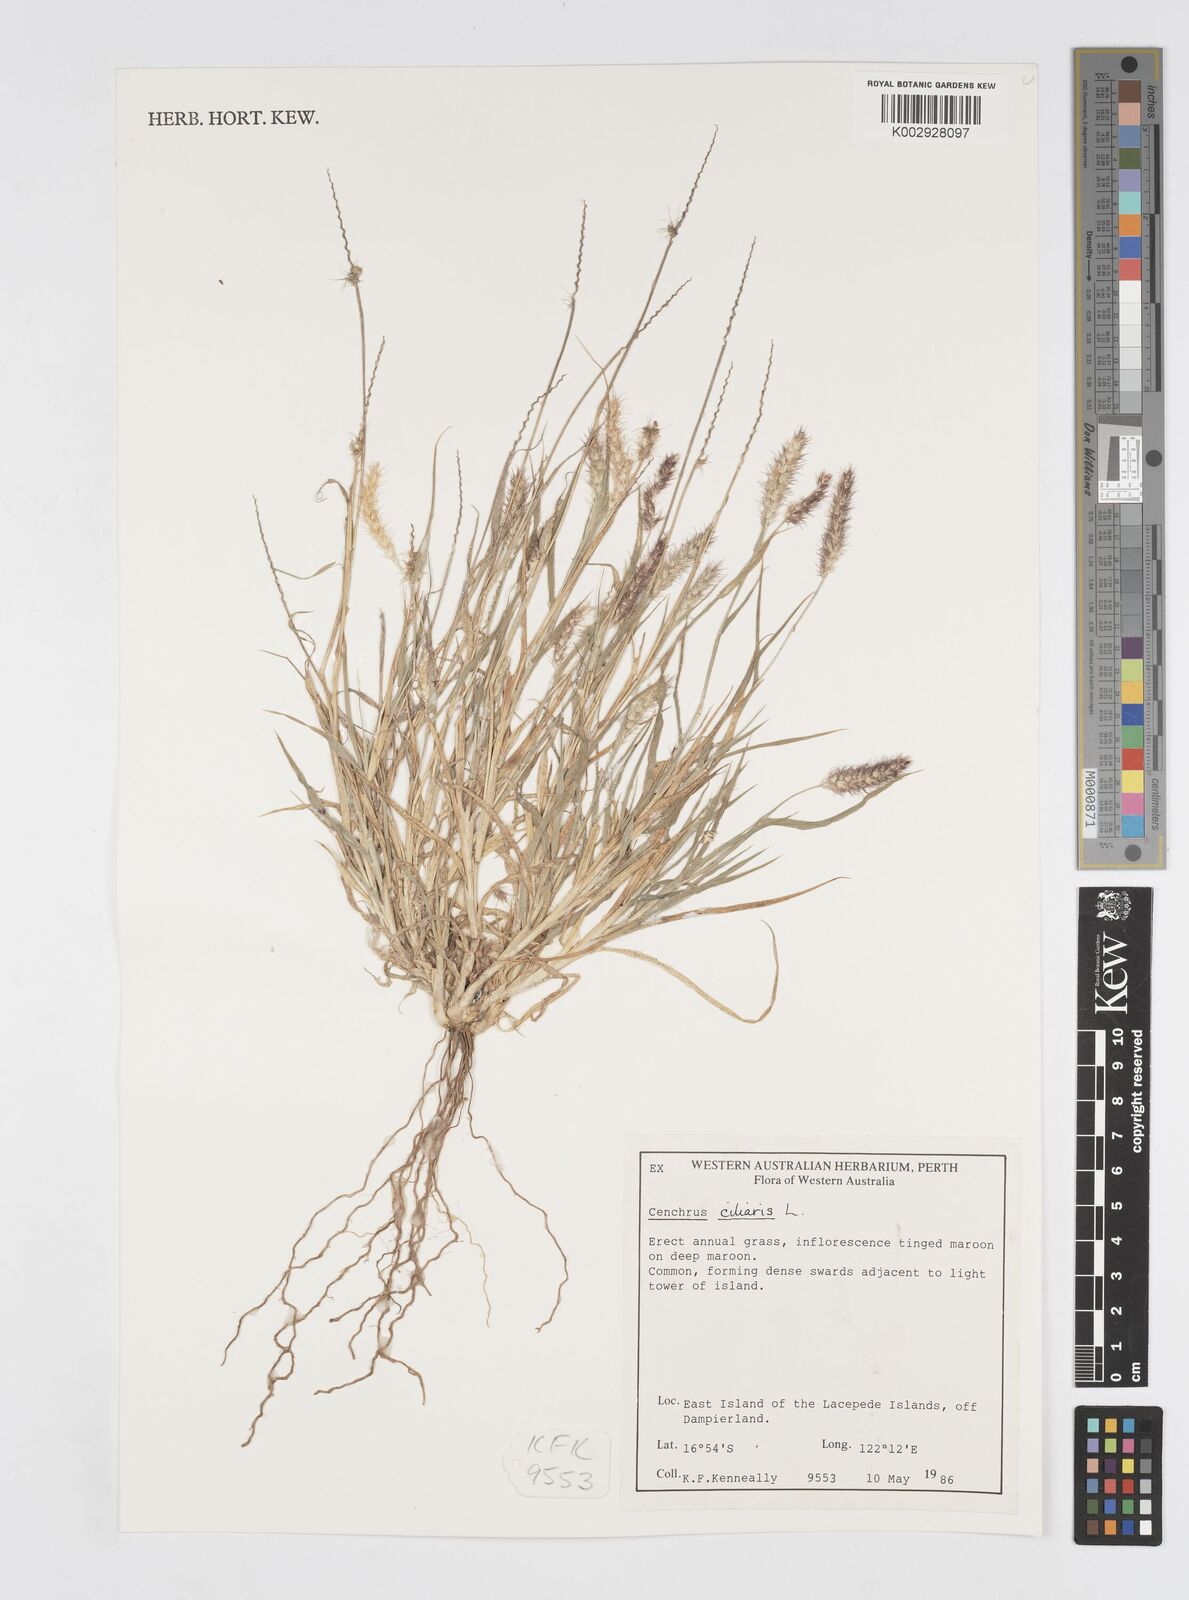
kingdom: Plantae
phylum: Tracheophyta
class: Liliopsida
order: Poales
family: Poaceae
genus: Cenchrus
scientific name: Cenchrus ciliaris
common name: Buffelgrass
